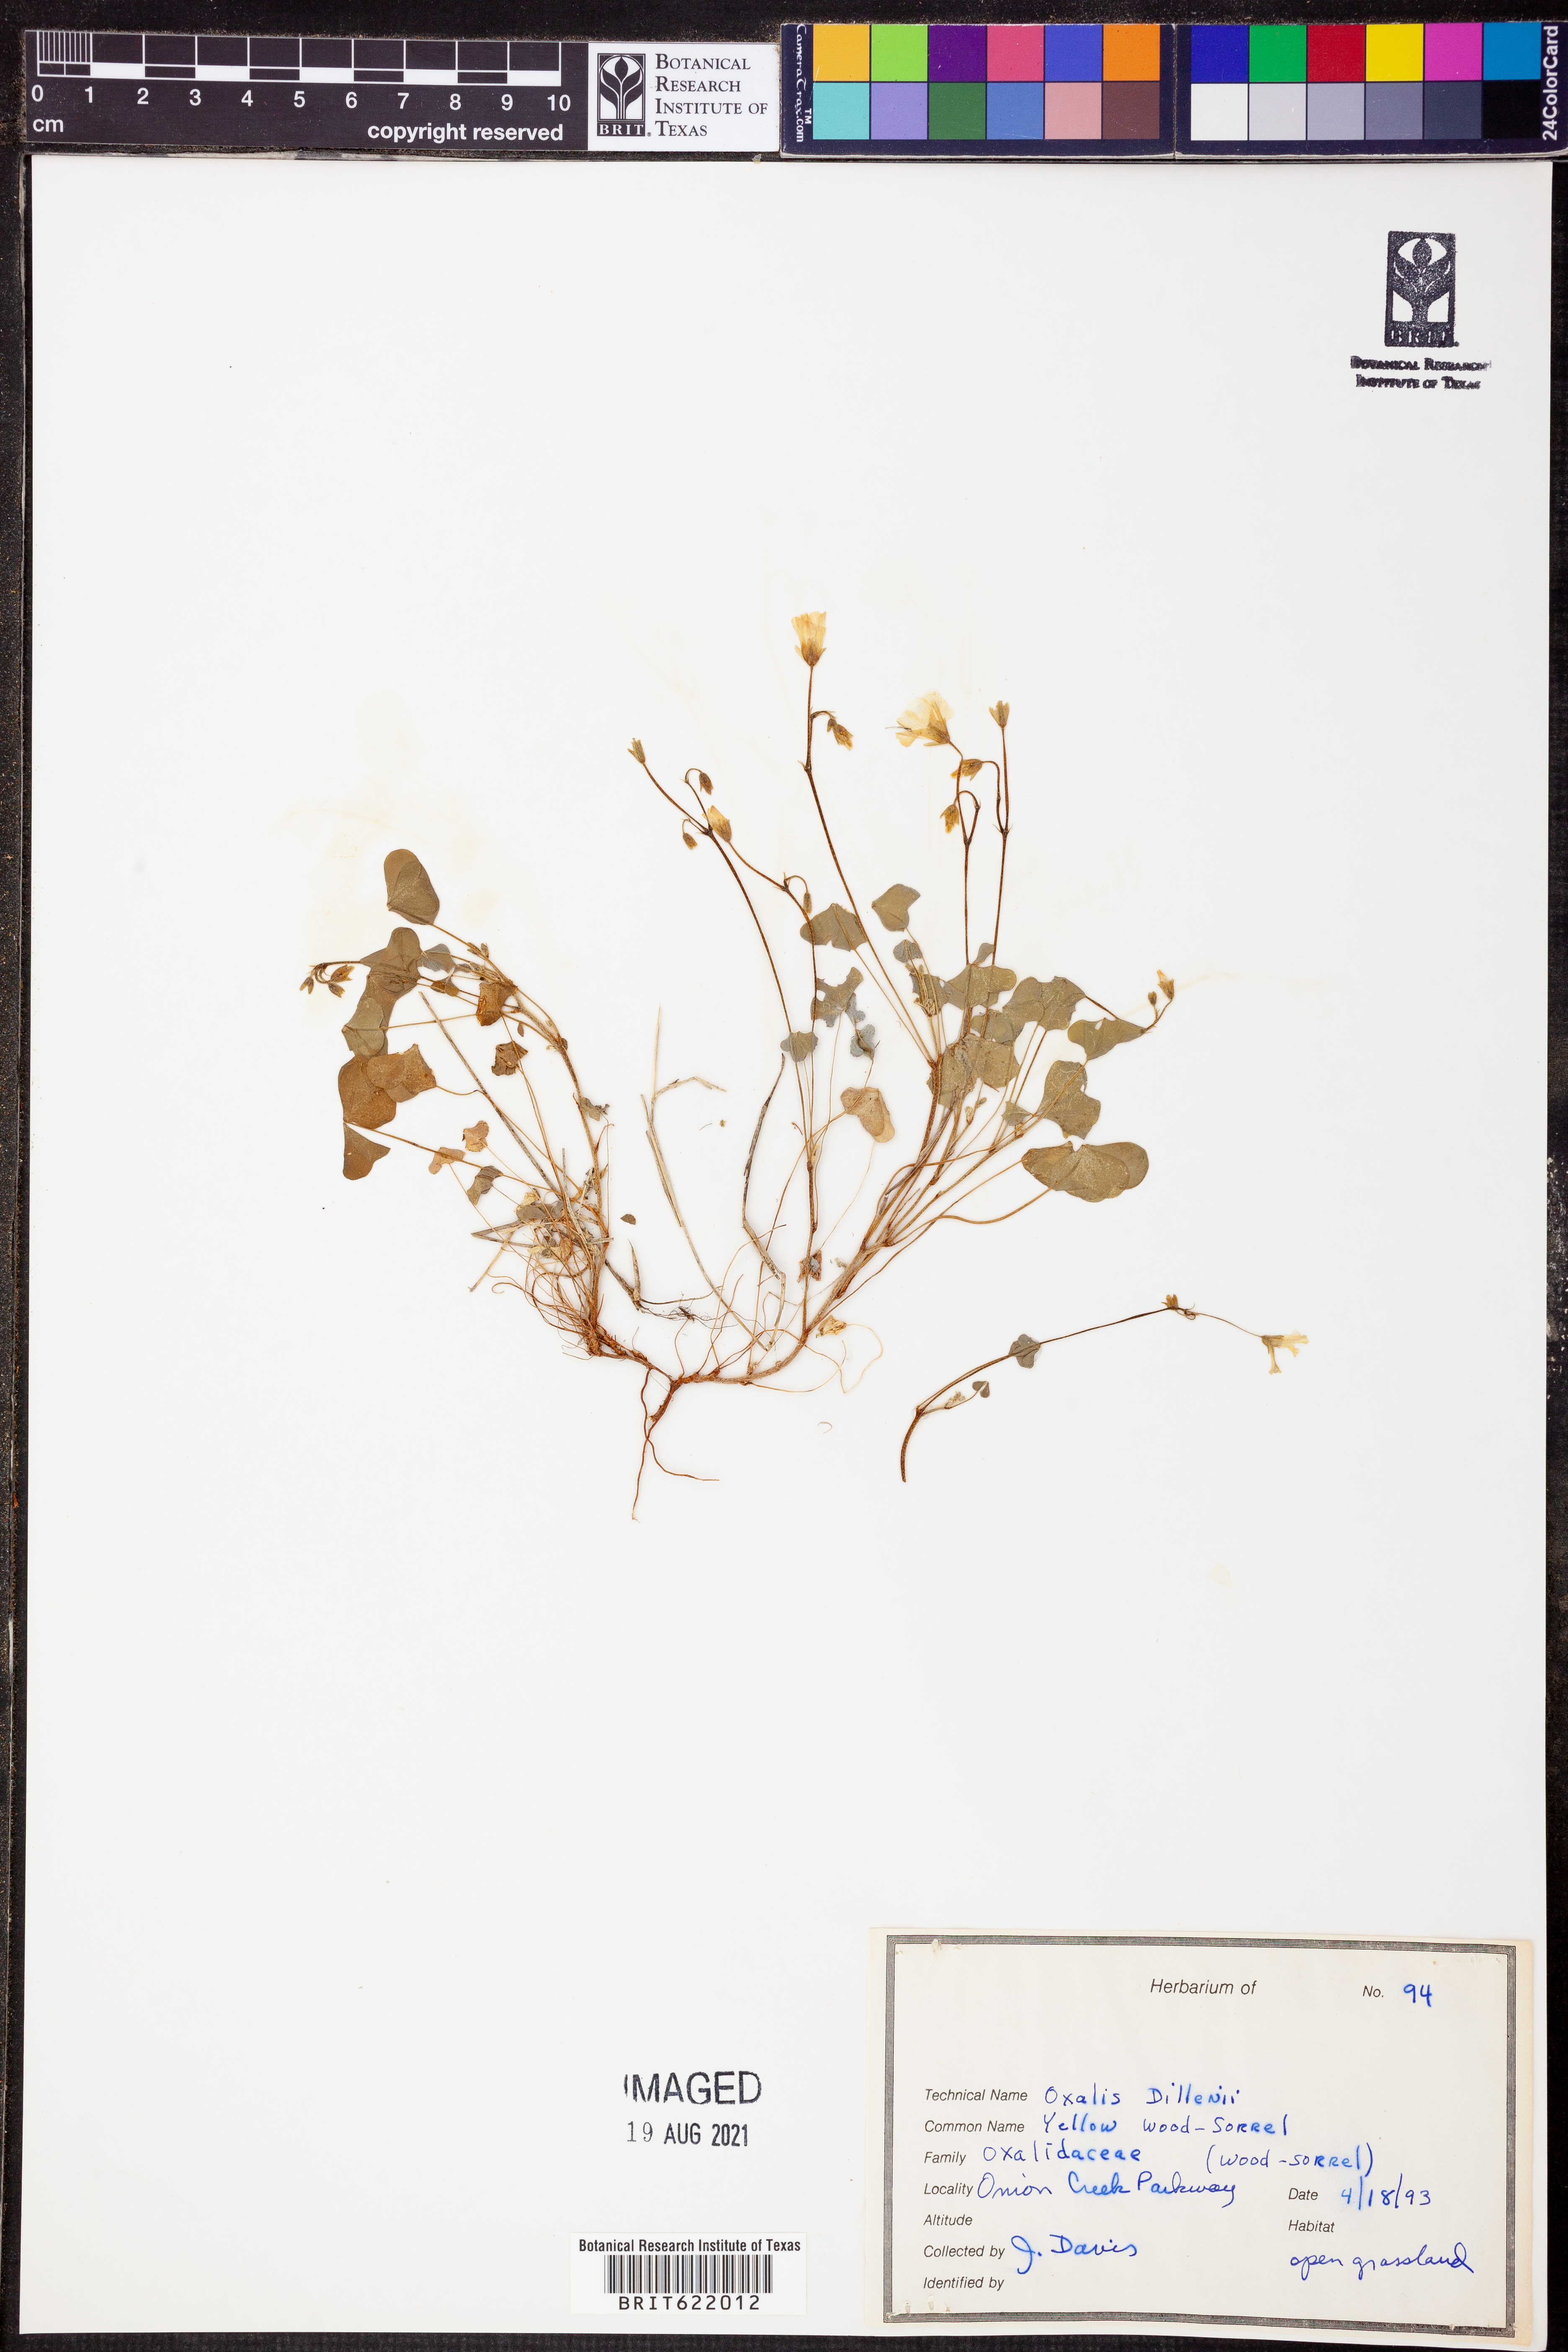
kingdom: Plantae
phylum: Tracheophyta
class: Magnoliopsida
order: Oxalidales
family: Oxalidaceae
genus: Oxalis
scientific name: Oxalis dillenii
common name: Sussex yellow-sorrel
